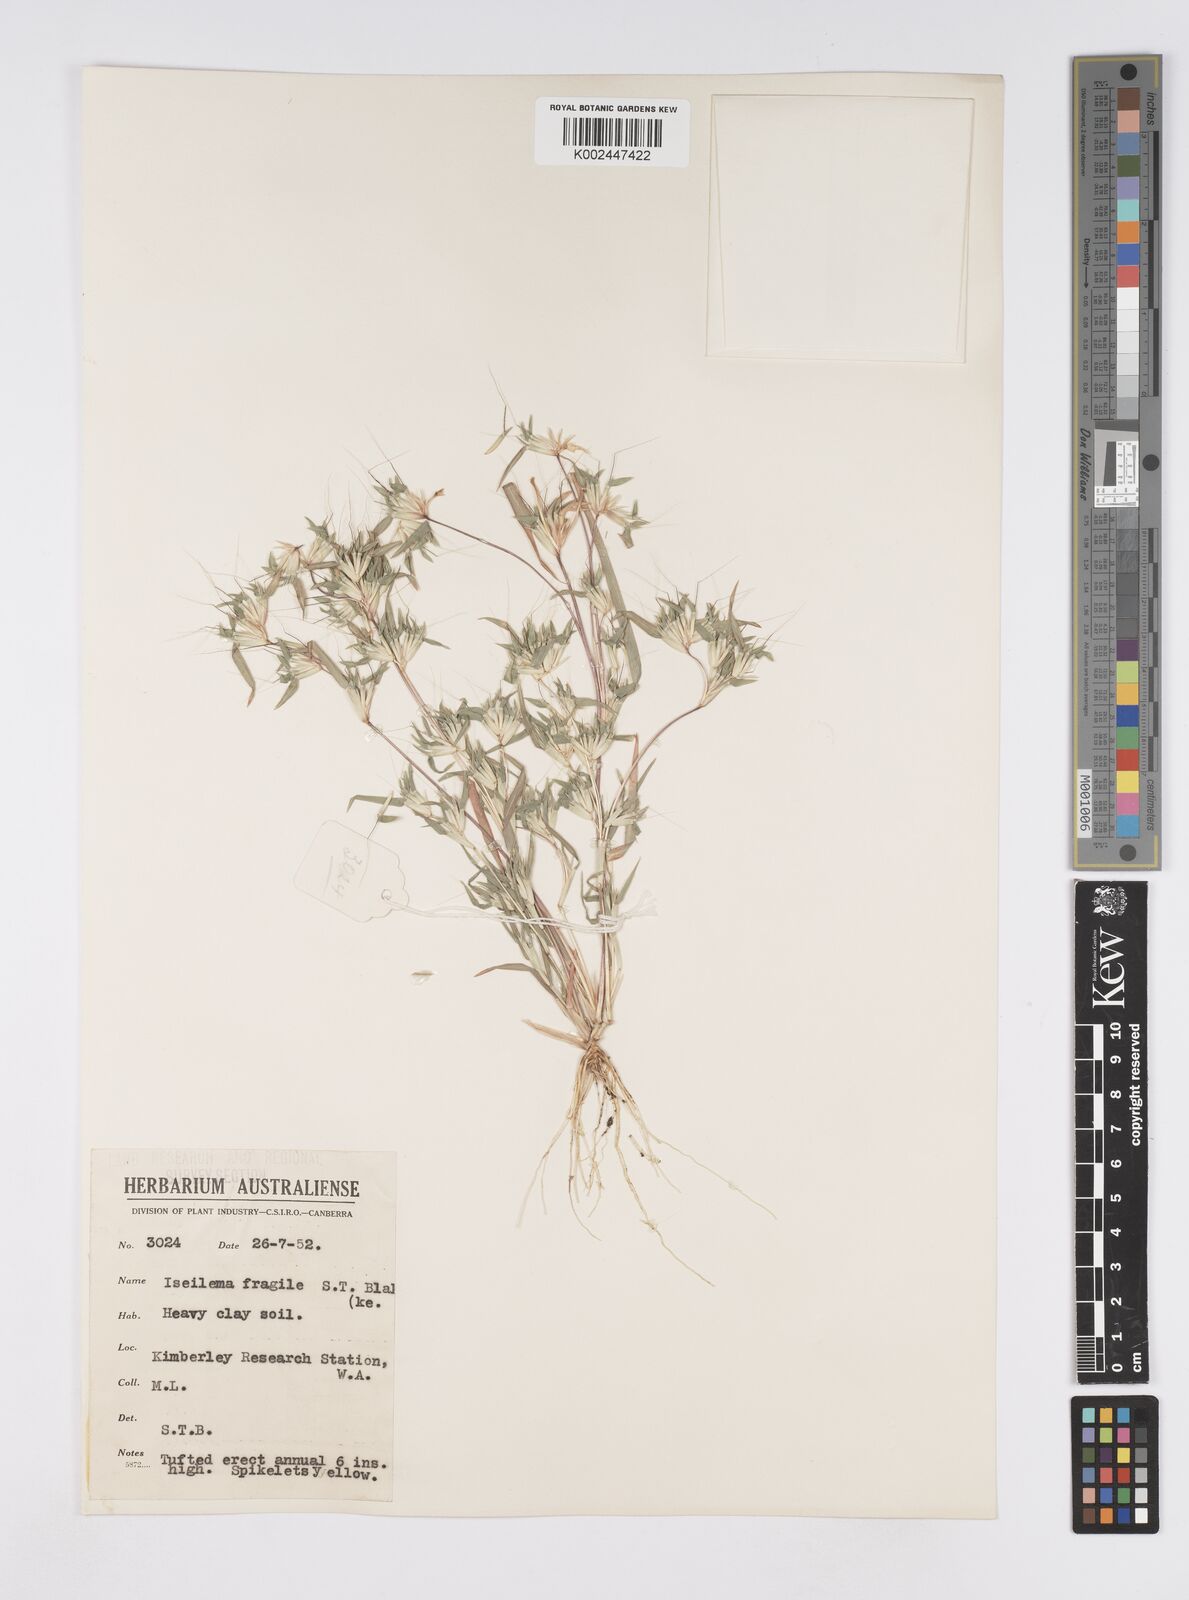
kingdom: Plantae
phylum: Tracheophyta
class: Liliopsida
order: Poales
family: Poaceae
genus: Iseilema
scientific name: Iseilema fragile
